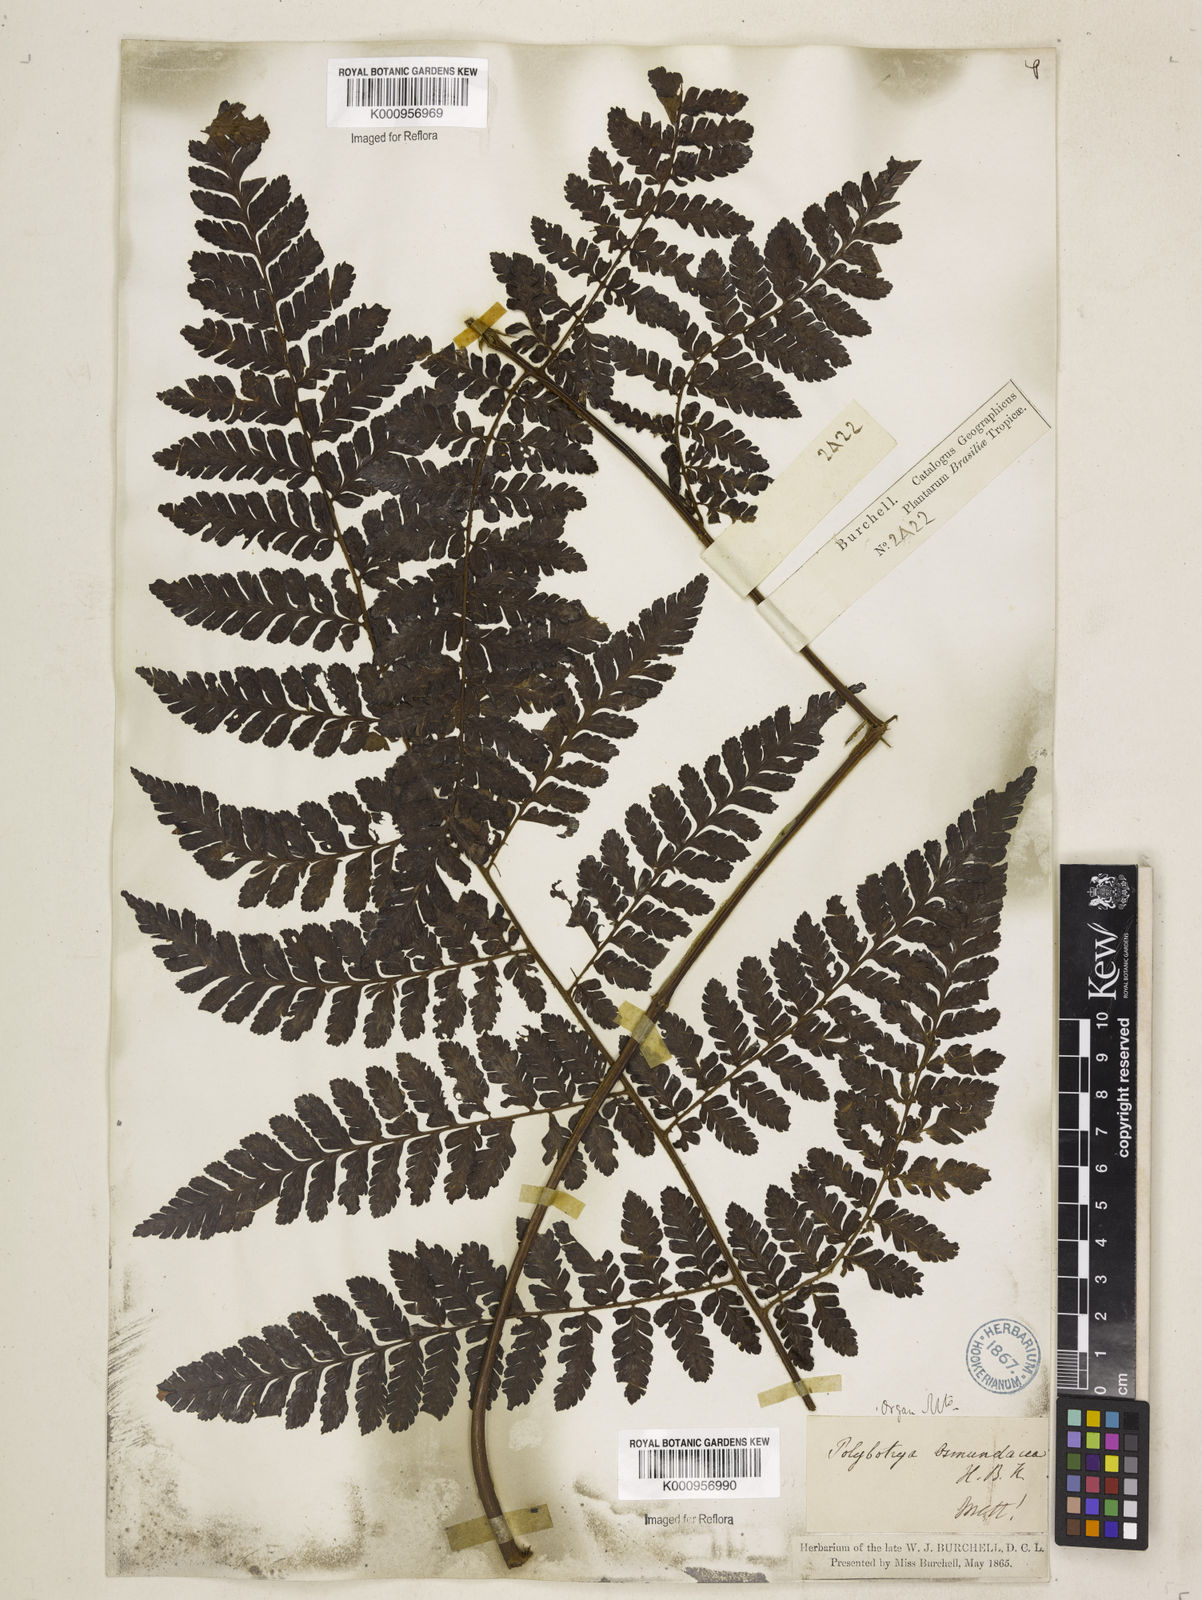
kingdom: Plantae
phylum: Tracheophyta
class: Polypodiopsida
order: Polypodiales
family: Dryopteridaceae
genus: Polybotrya
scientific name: Polybotrya osmundacea
